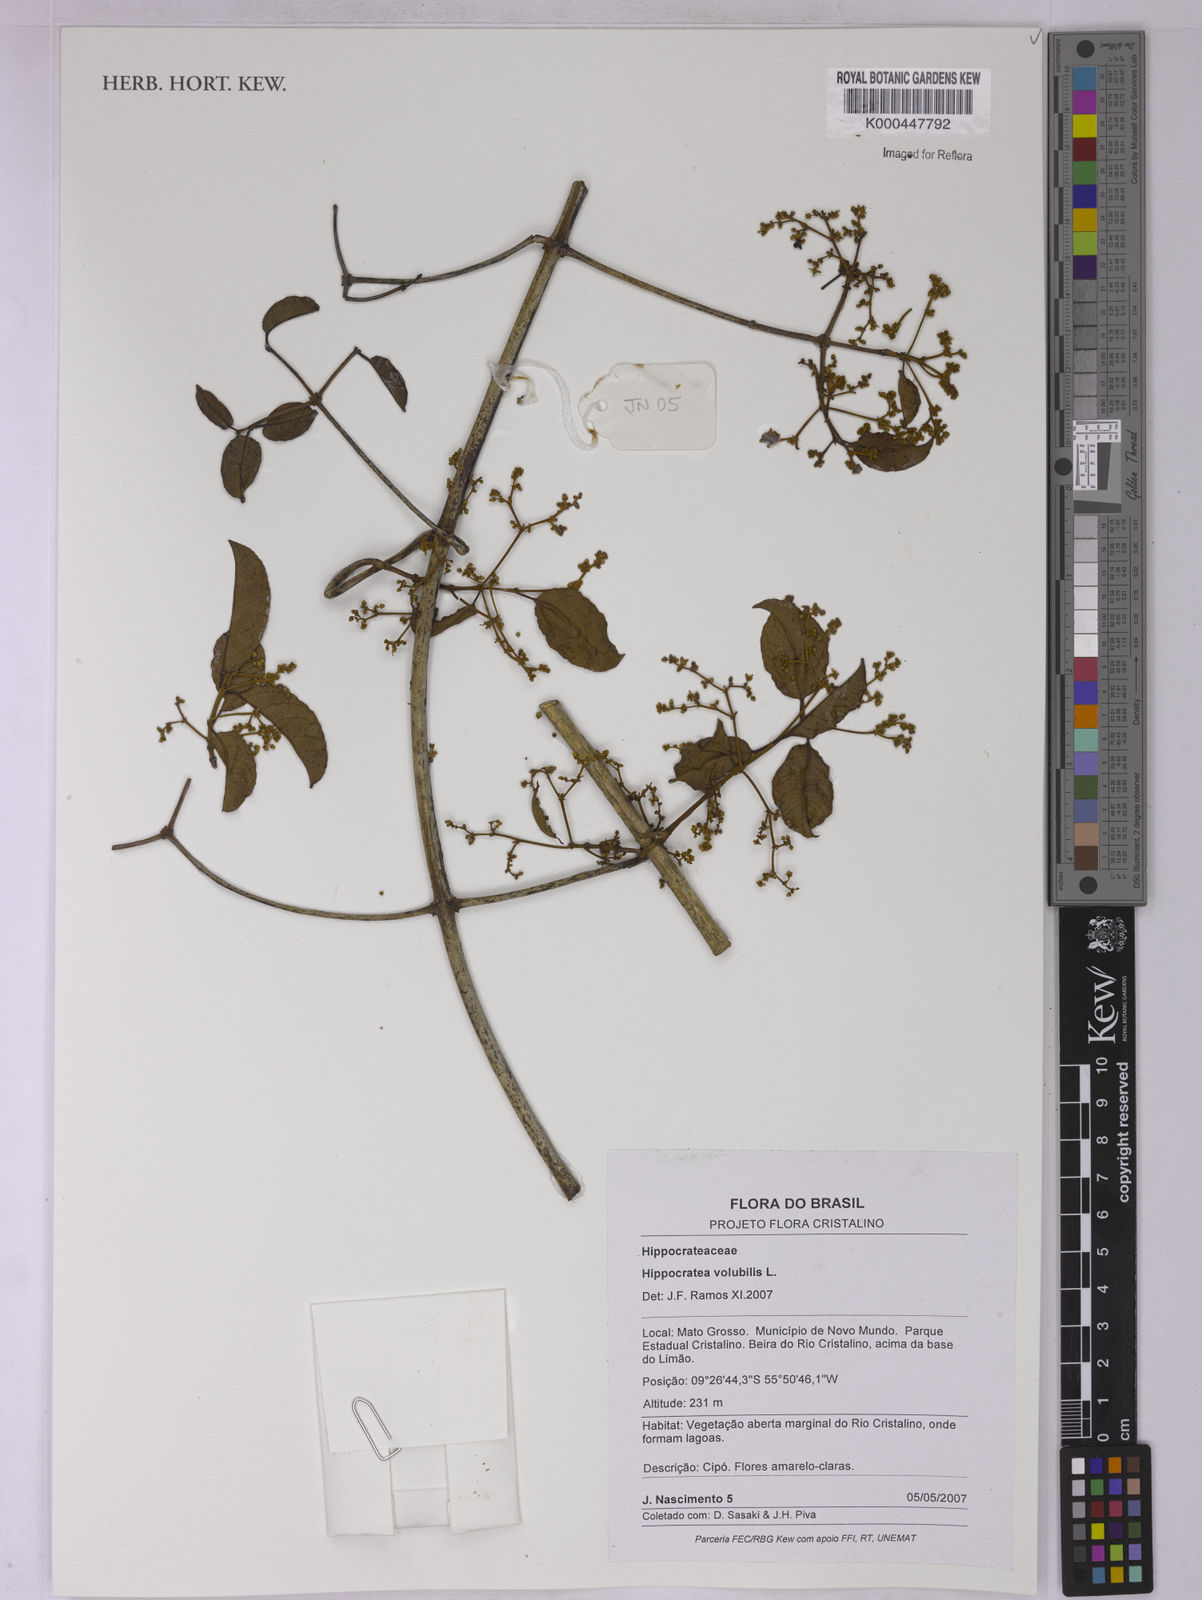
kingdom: Plantae
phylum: Tracheophyta
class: Magnoliopsida
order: Celastrales
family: Celastraceae
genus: Hippocratea
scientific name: Hippocratea volubilis
